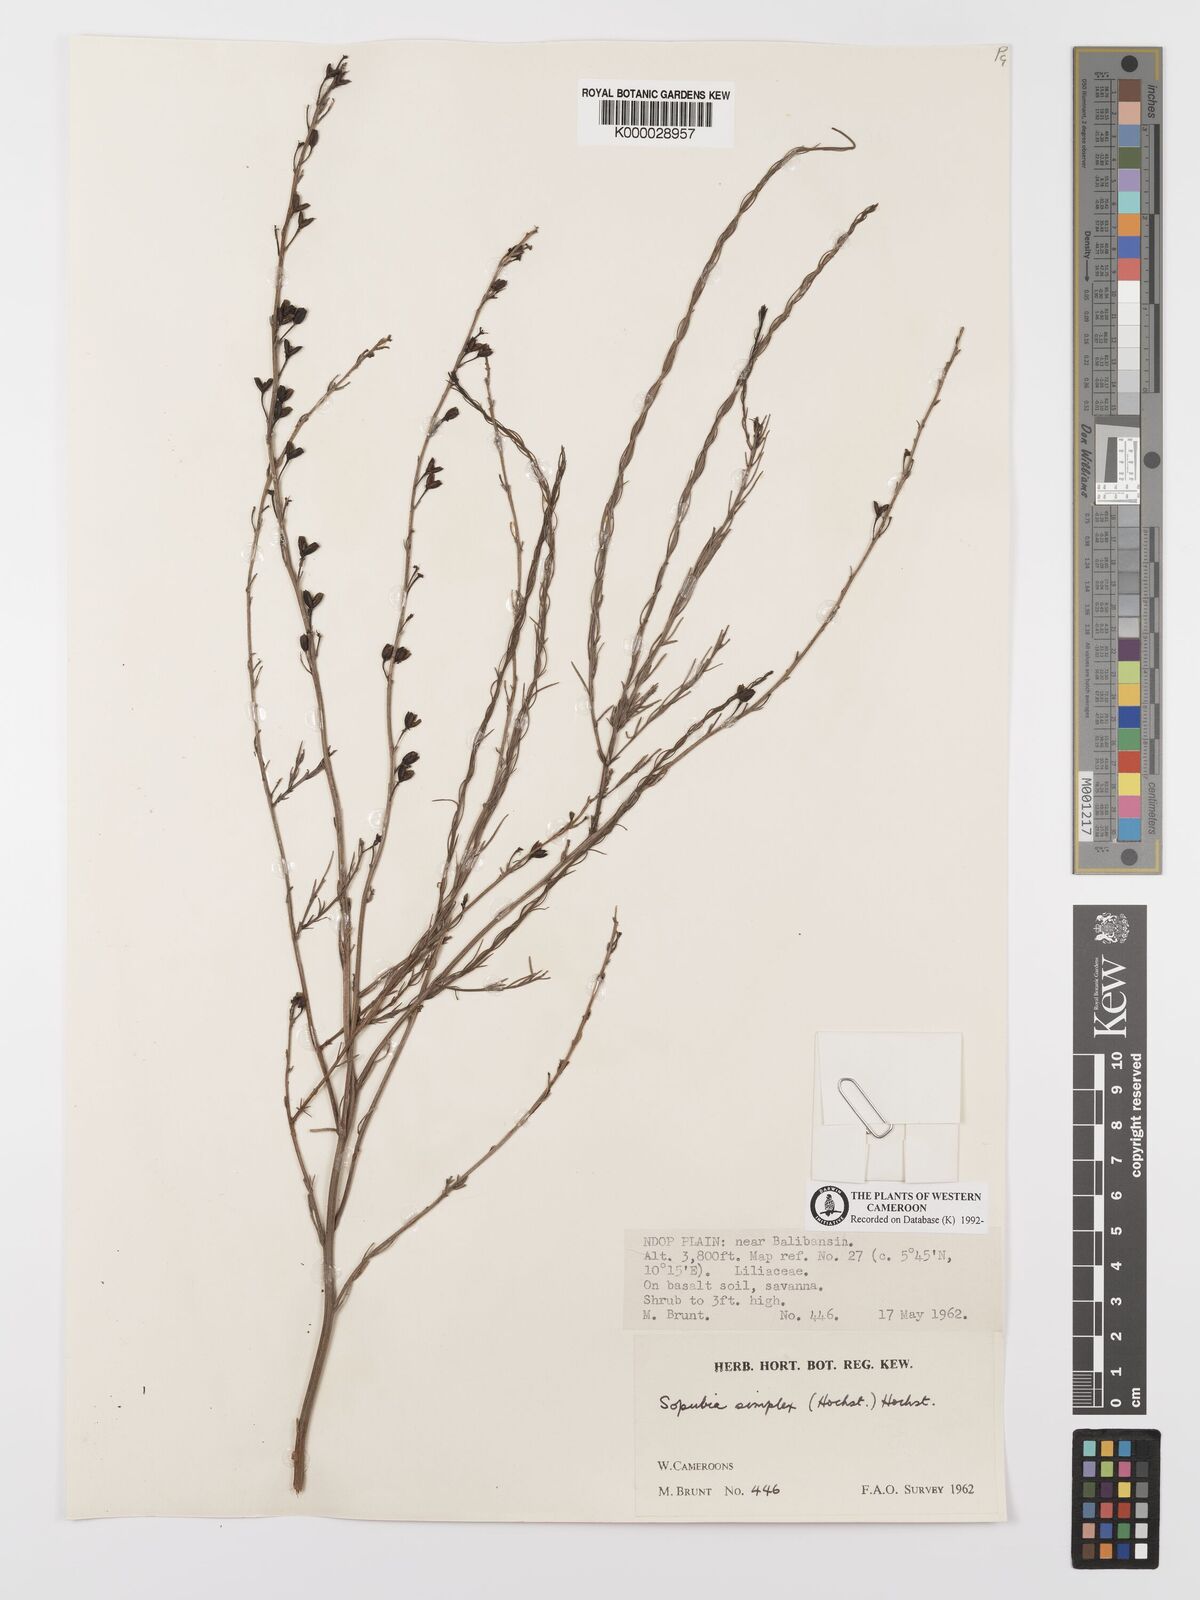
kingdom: Plantae
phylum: Tracheophyta
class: Magnoliopsida
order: Lamiales
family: Orobanchaceae
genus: Sopubia
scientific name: Sopubia simplex
